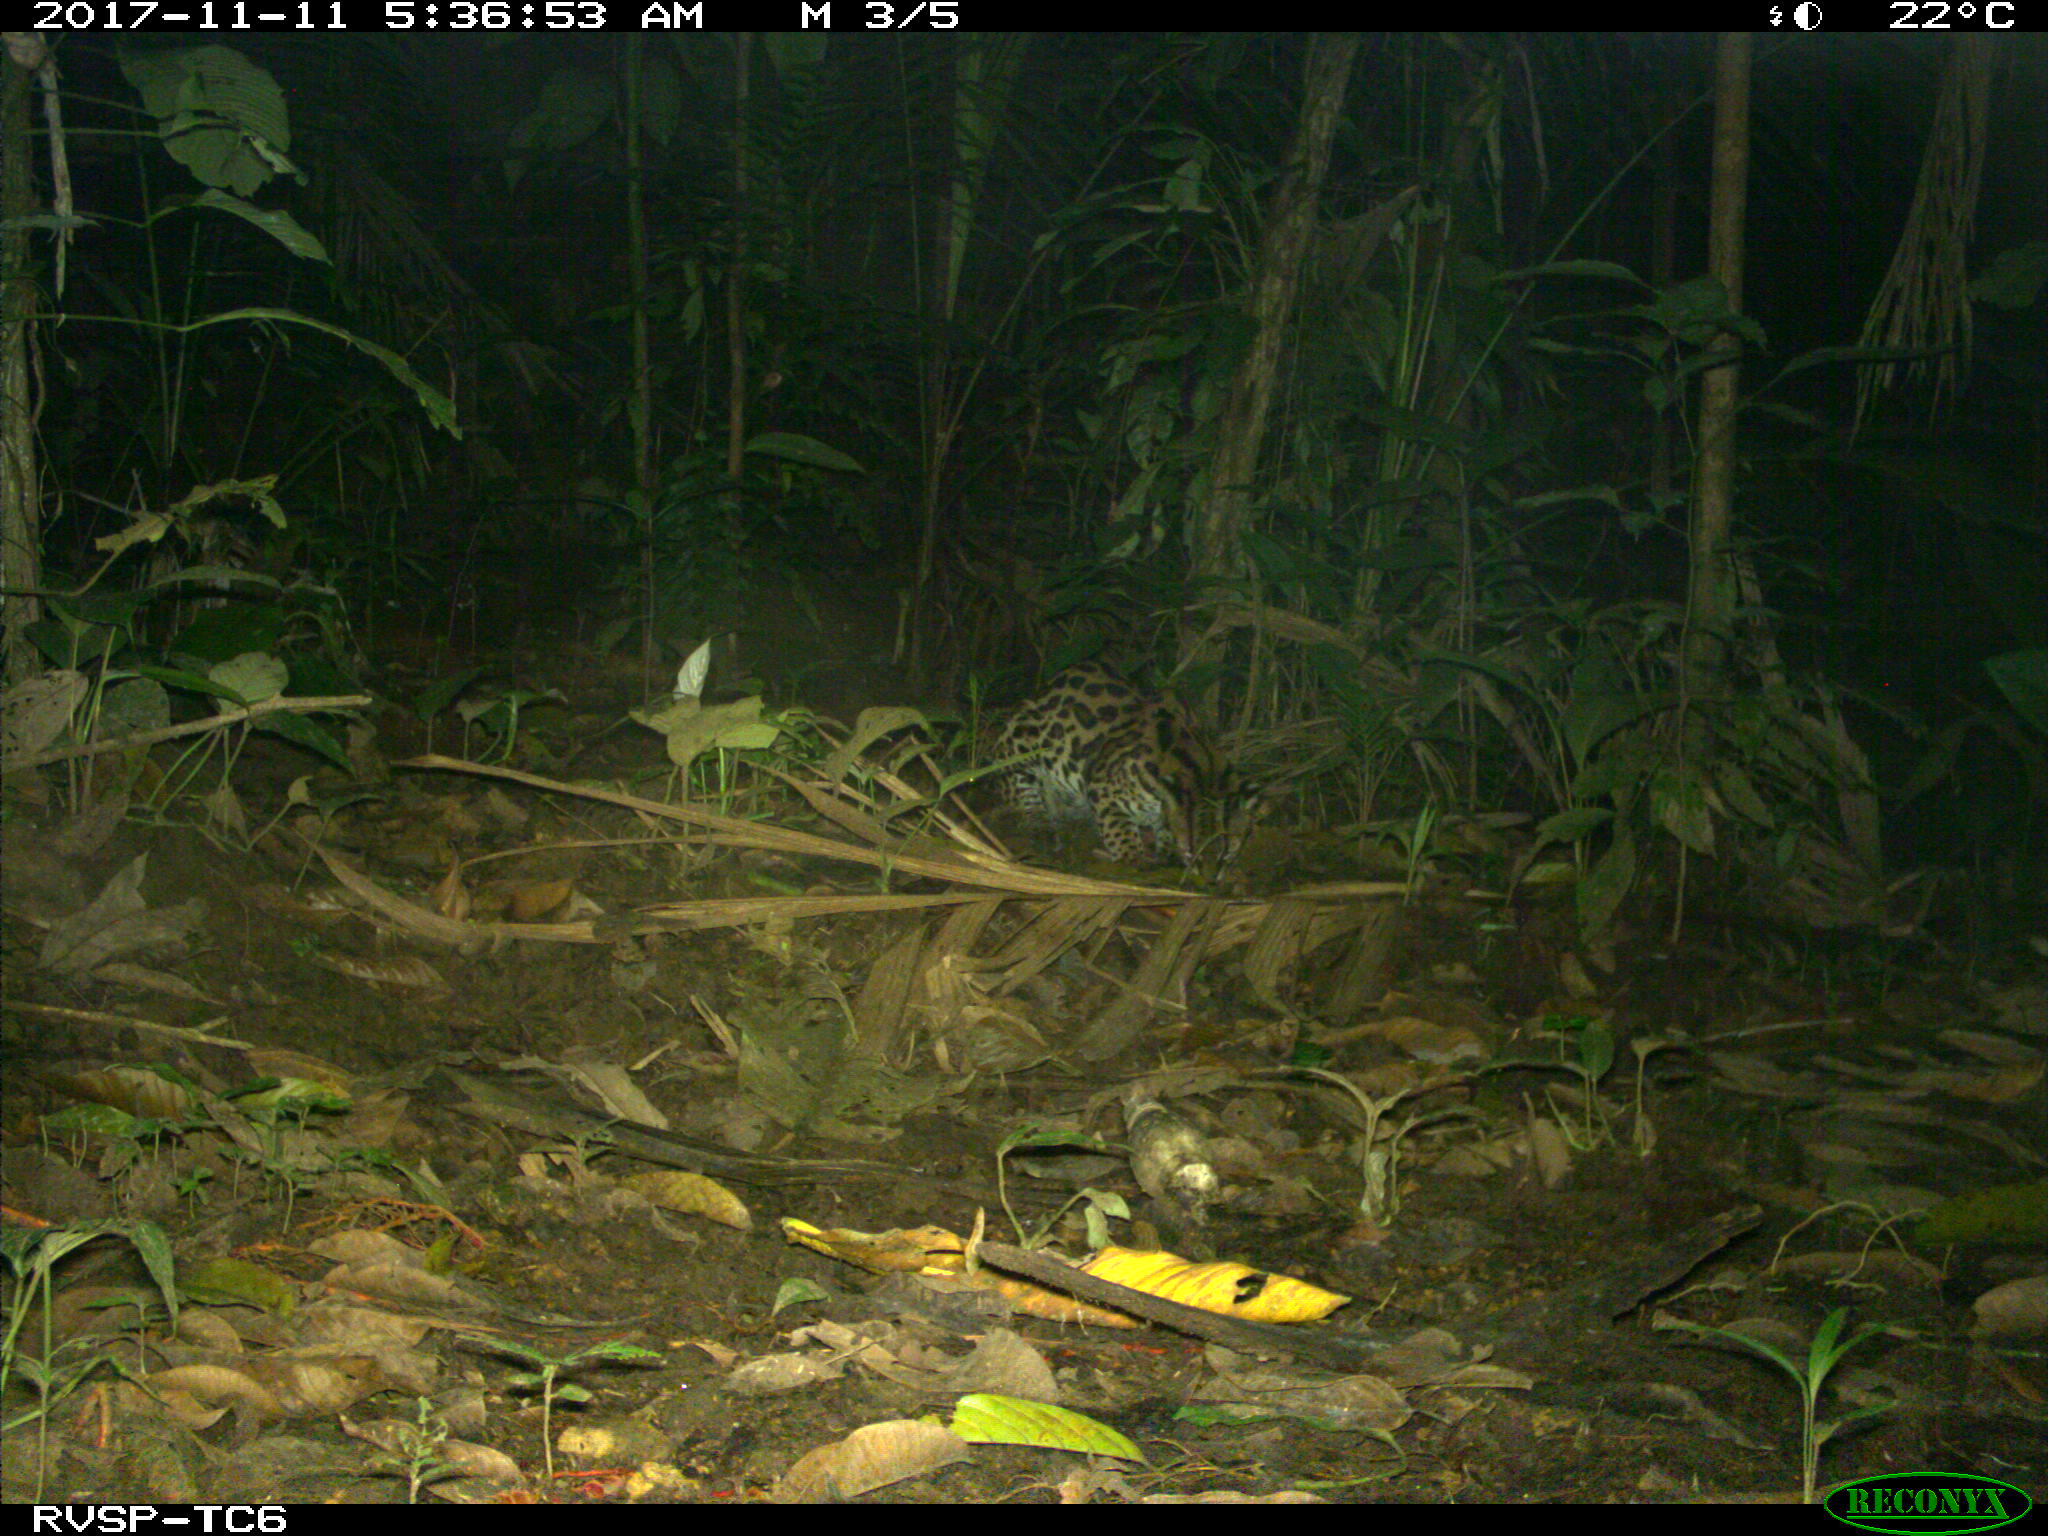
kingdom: Animalia
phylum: Chordata
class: Mammalia
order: Carnivora
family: Felidae
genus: Leopardus
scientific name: Leopardus pardalis
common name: Ocelot
